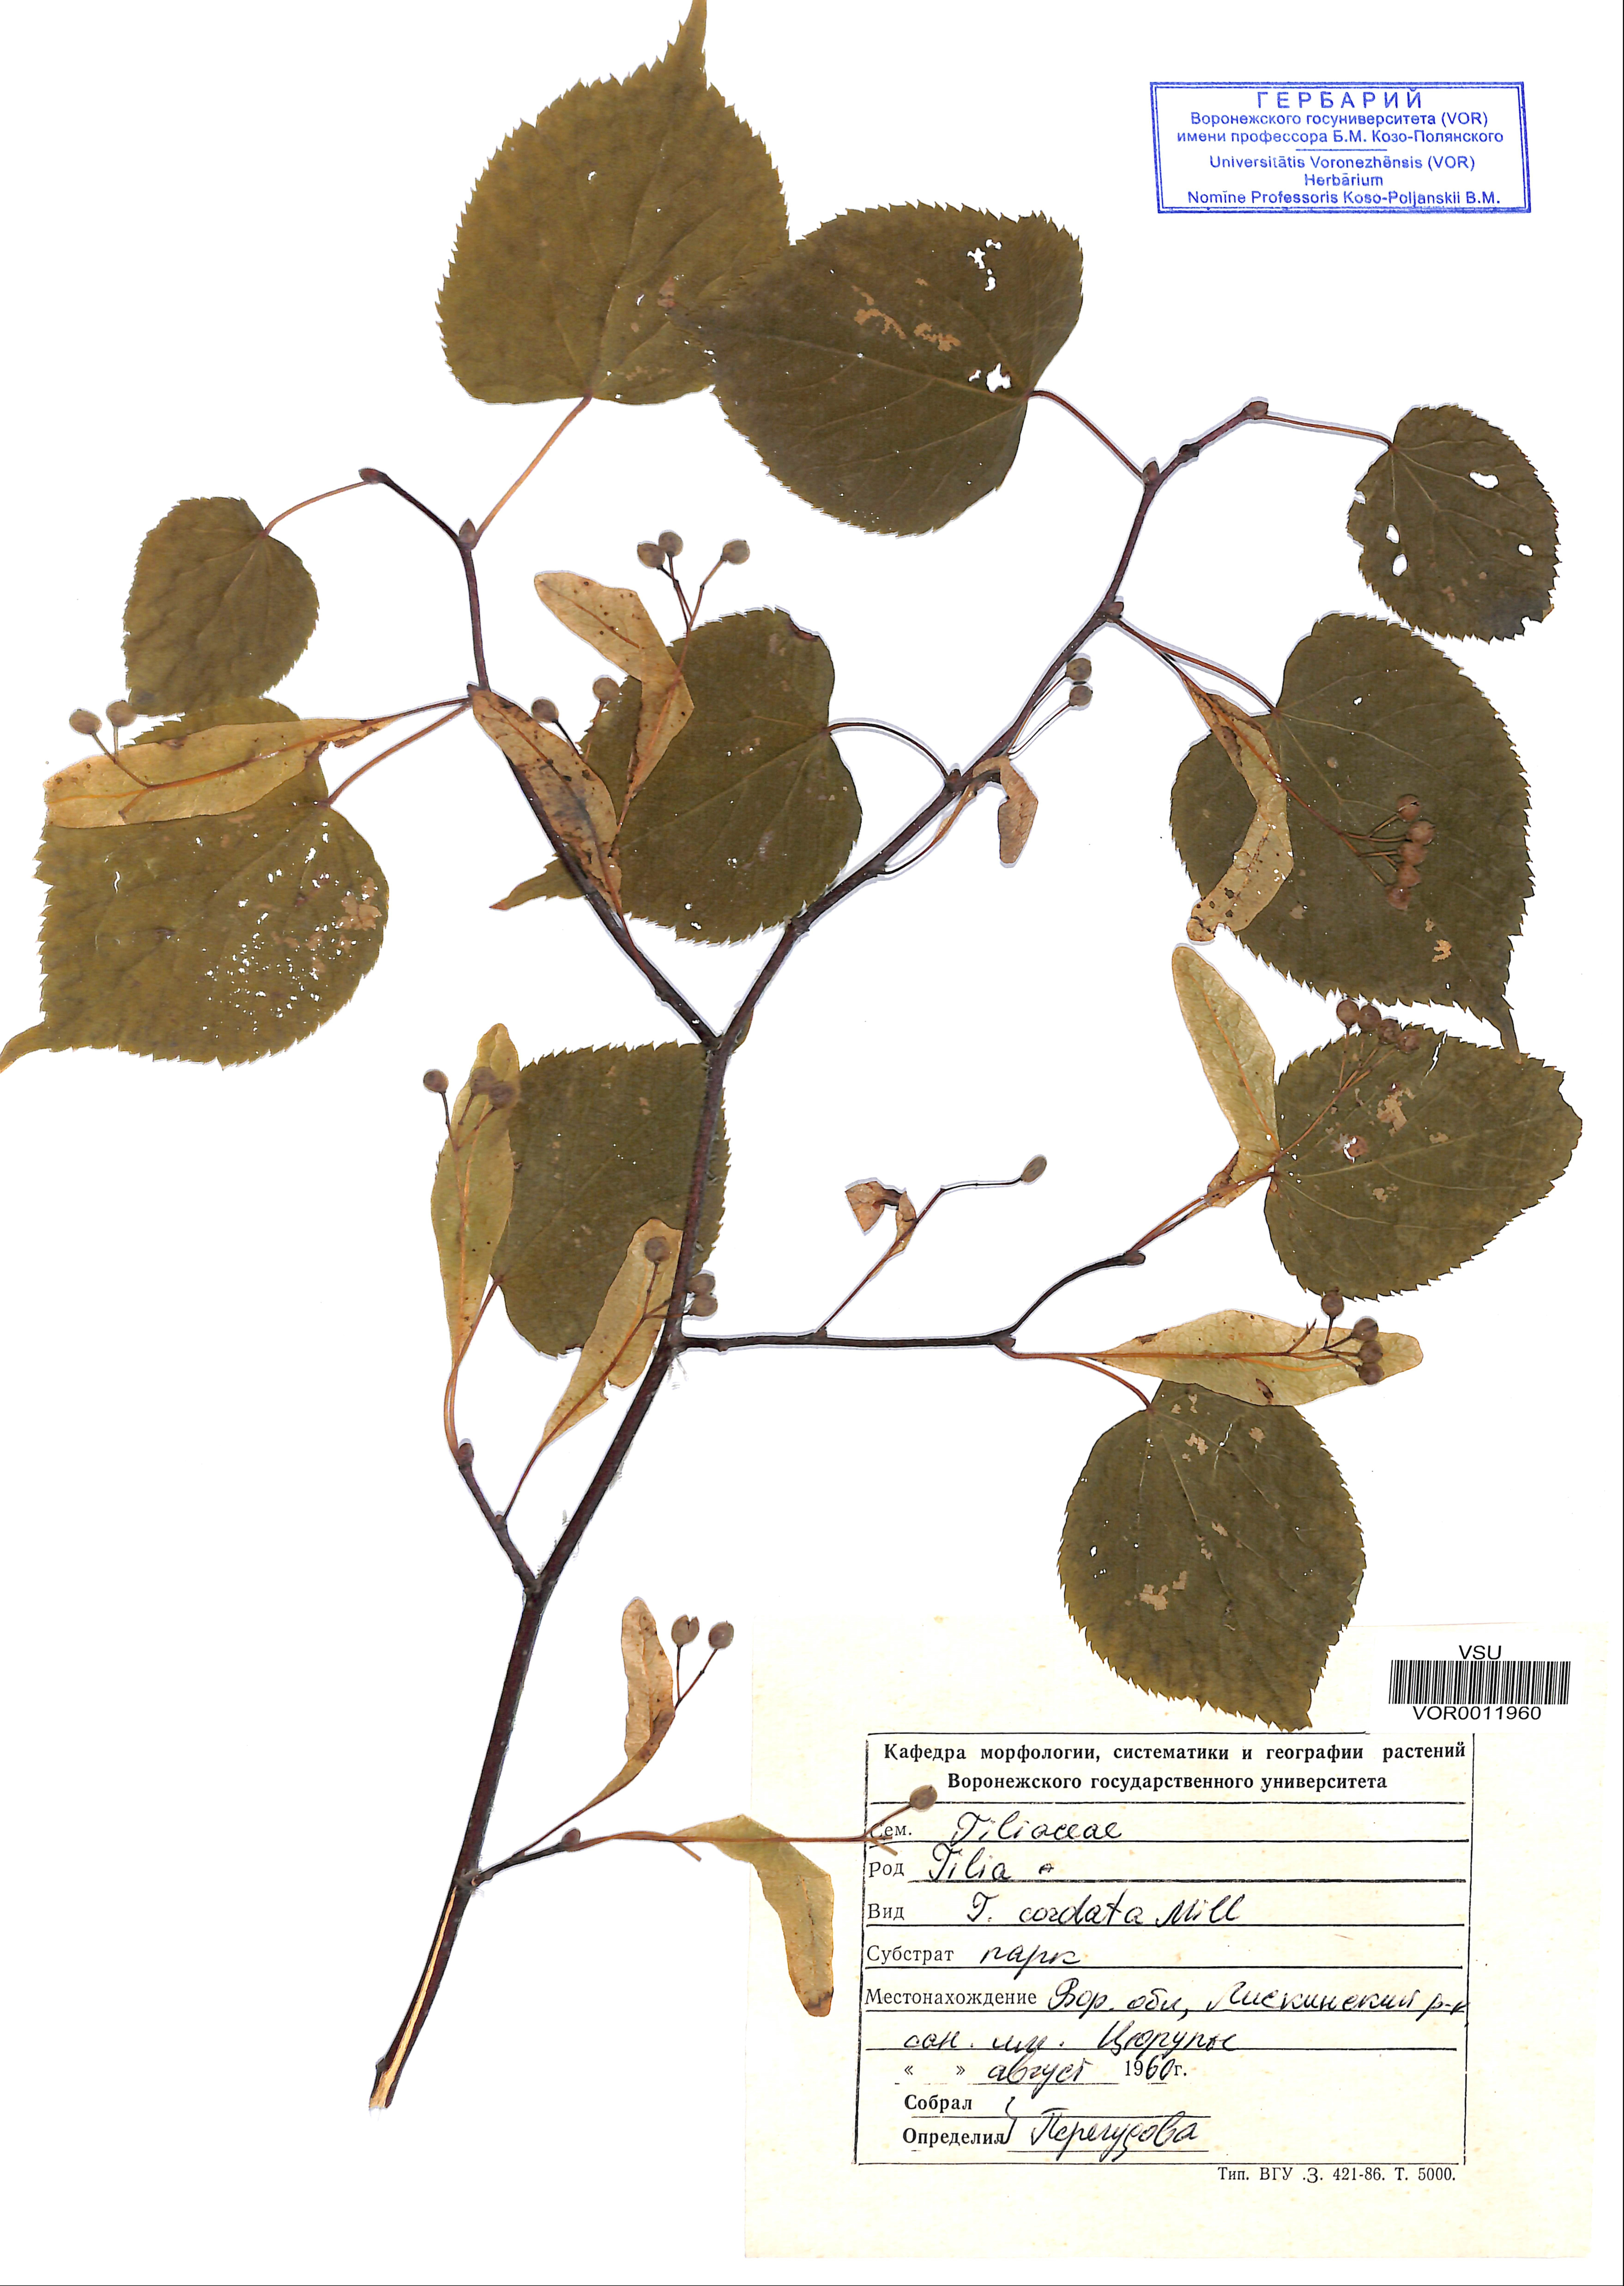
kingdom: Plantae
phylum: Tracheophyta
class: Magnoliopsida
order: Malvales
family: Malvaceae
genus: Tilia
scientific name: Tilia cordata
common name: Small-leaved lime
